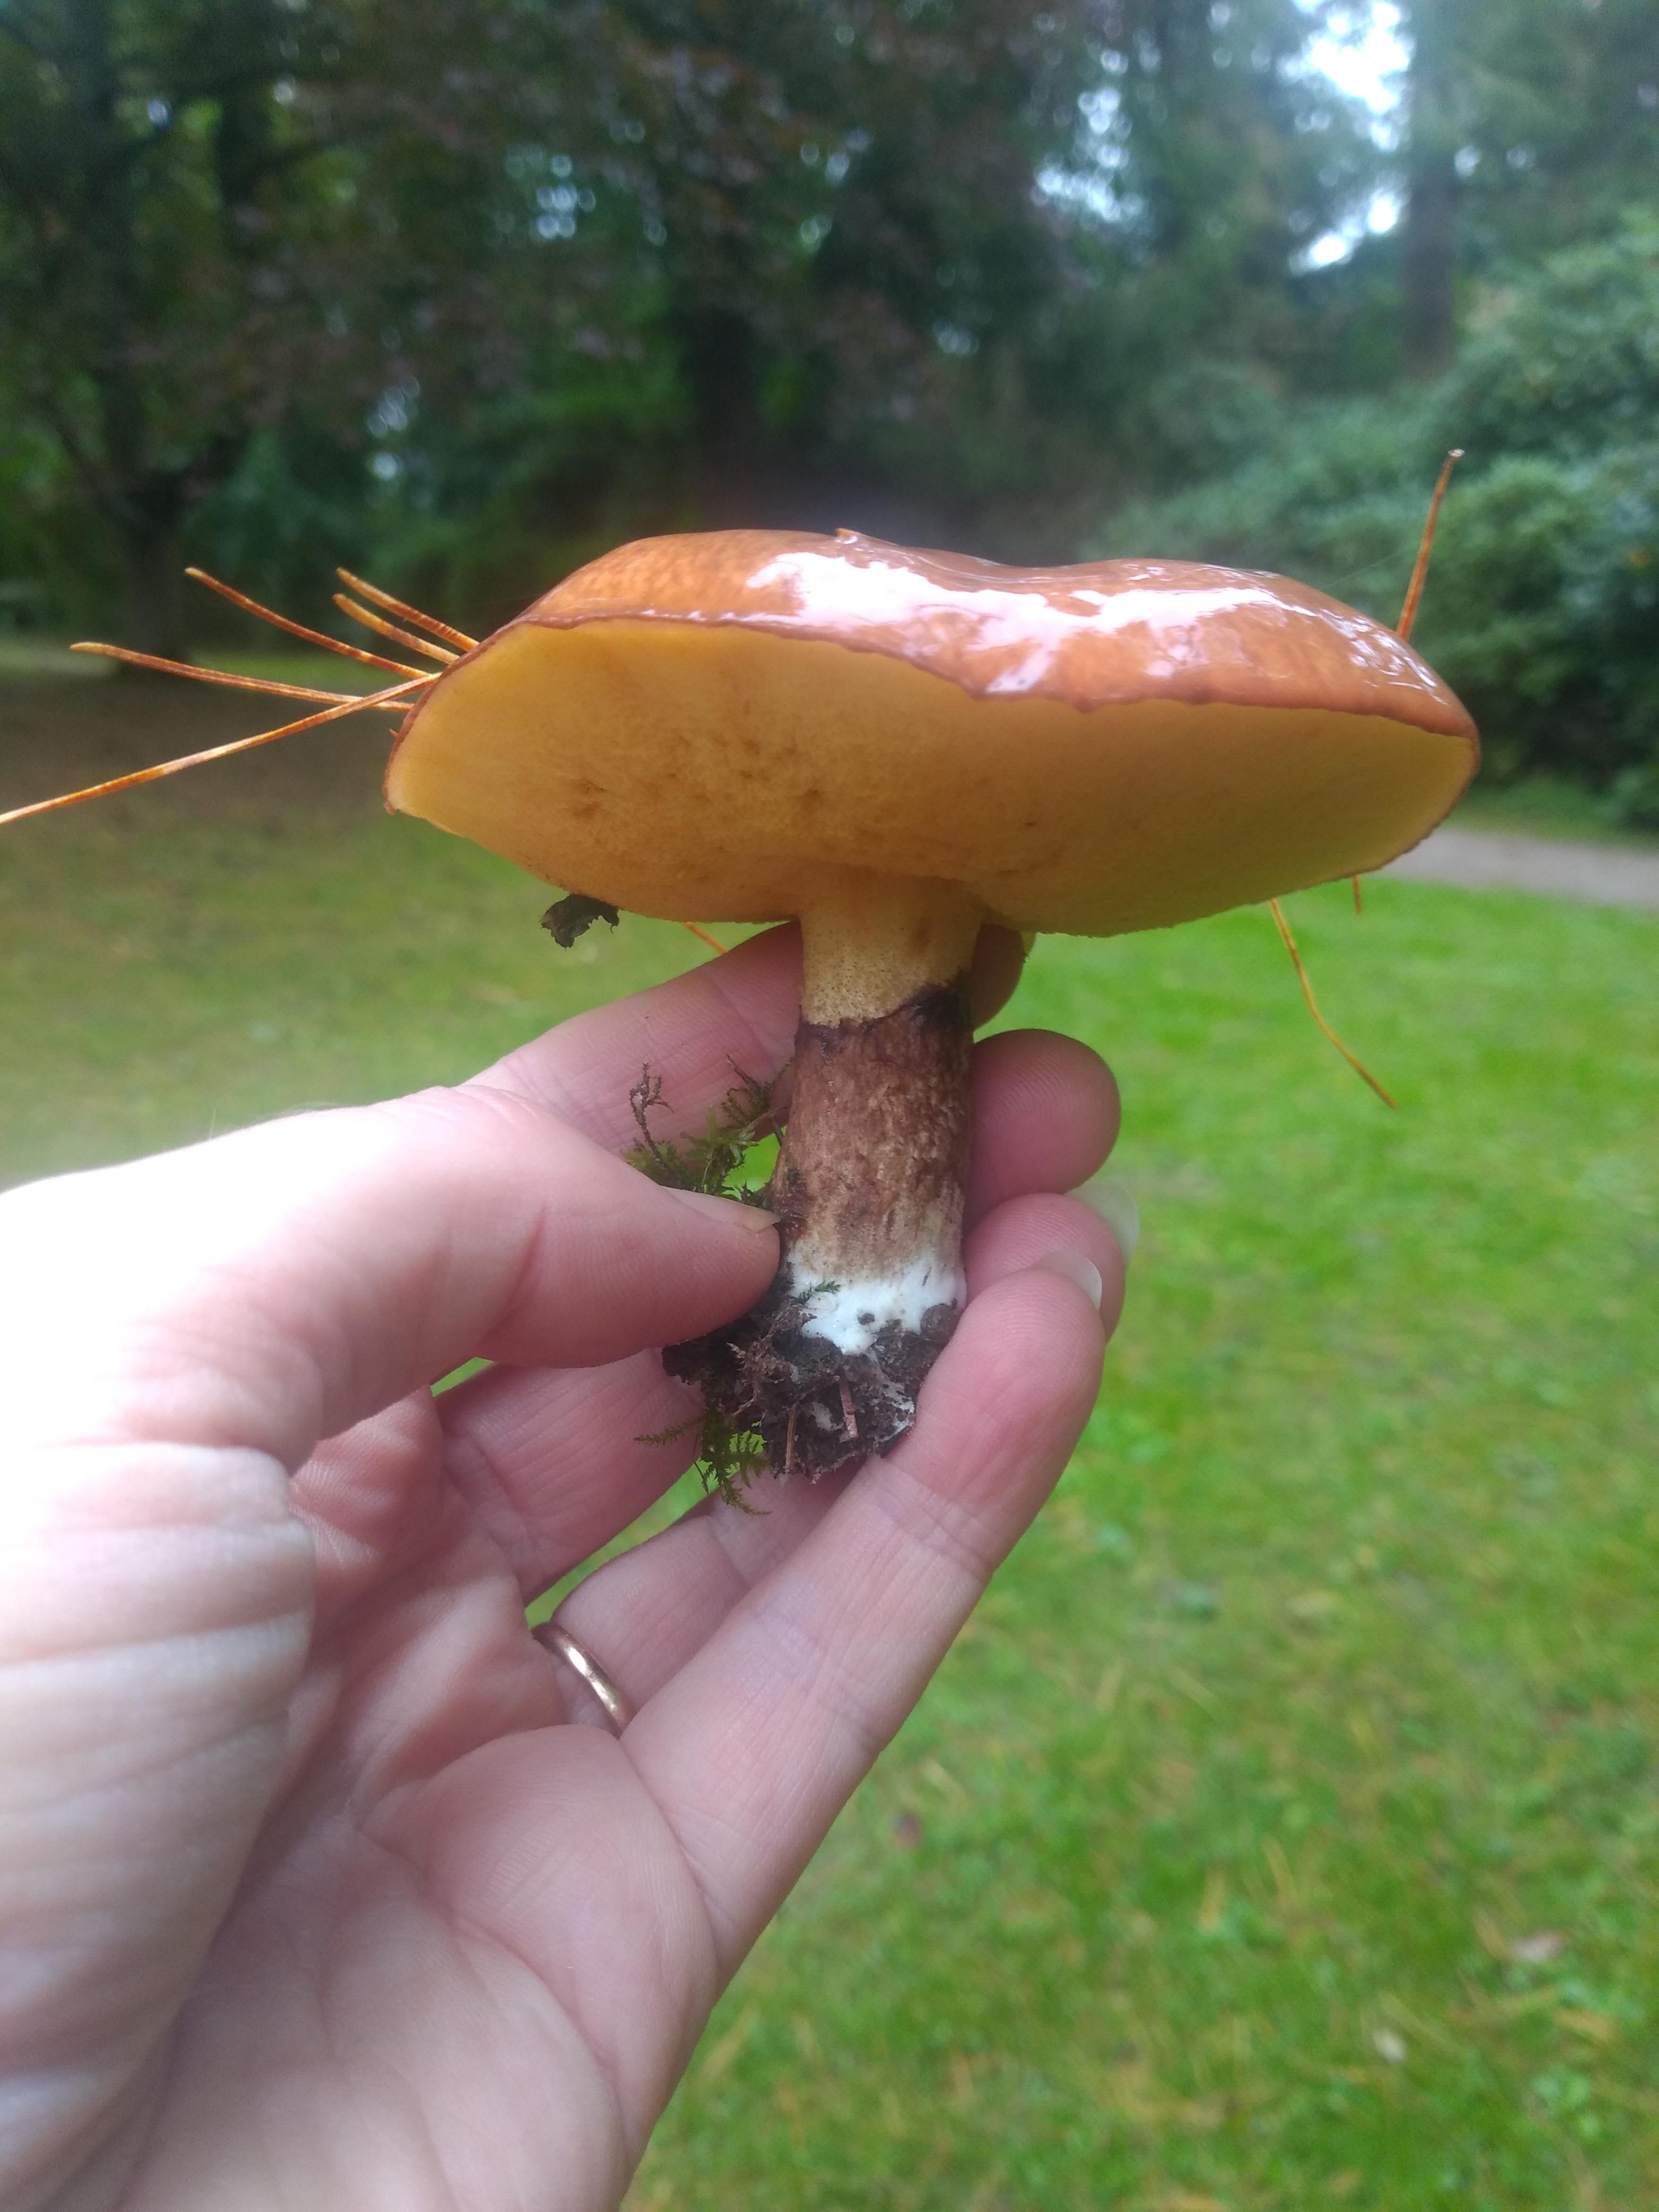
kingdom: Fungi
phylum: Basidiomycota
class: Agaricomycetes
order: Boletales
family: Suillaceae
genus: Suillus
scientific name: Suillus luteus
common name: brungul slimrørhat
